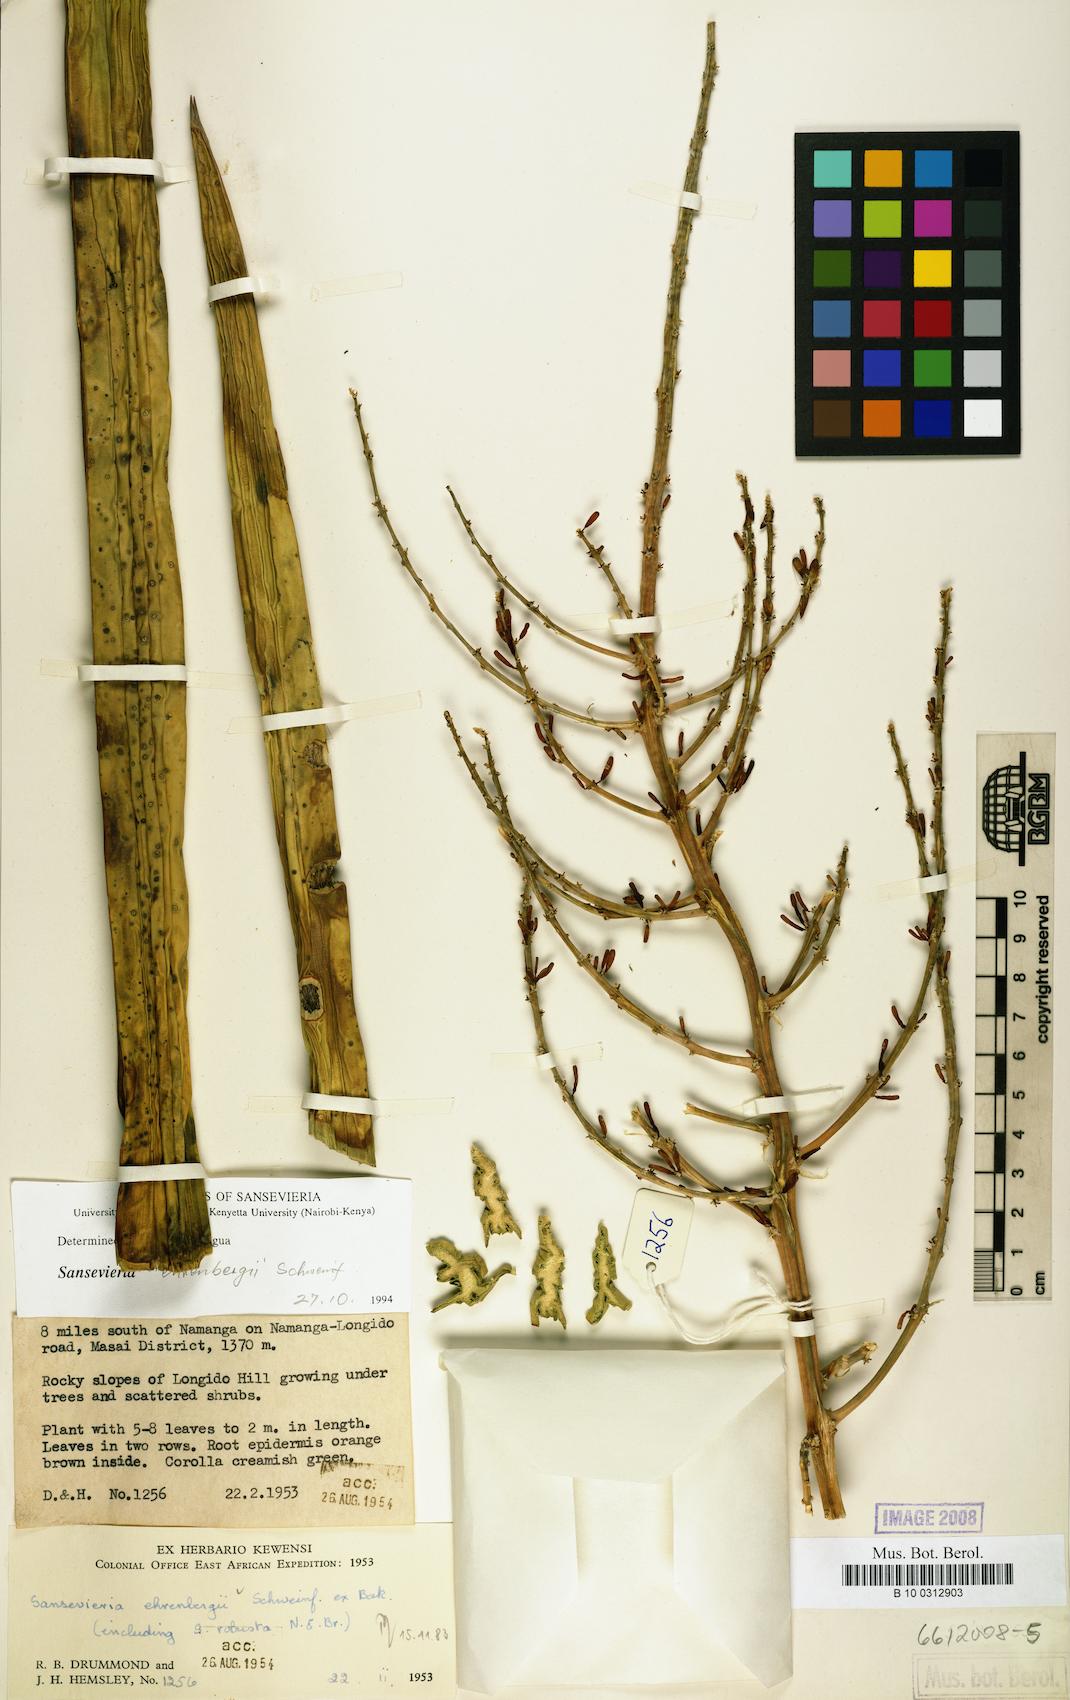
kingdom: Plantae
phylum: Tracheophyta
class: Liliopsida
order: Asparagales
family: Asparagaceae
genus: Dracaena
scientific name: Dracaena hanningtonii
